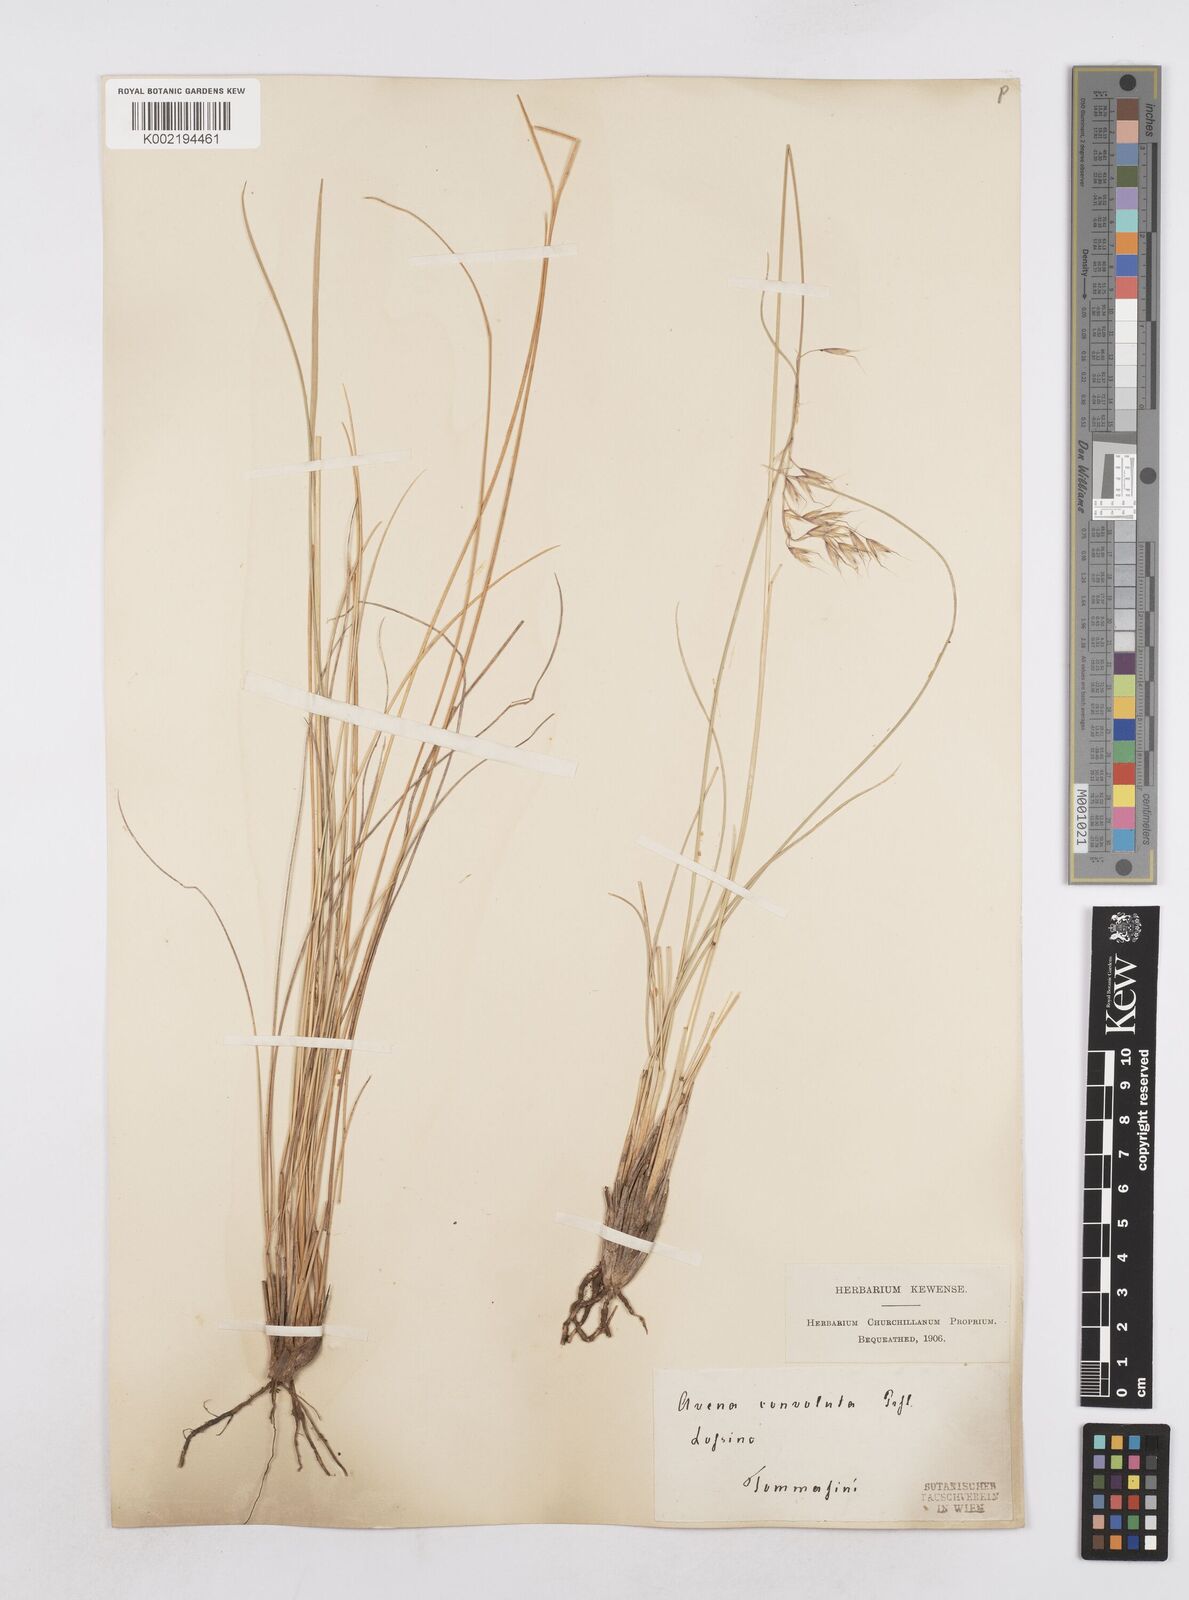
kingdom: Plantae
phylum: Tracheophyta
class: Liliopsida
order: Poales
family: Poaceae
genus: Helictotrichon
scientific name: Helictotrichon convolutum
